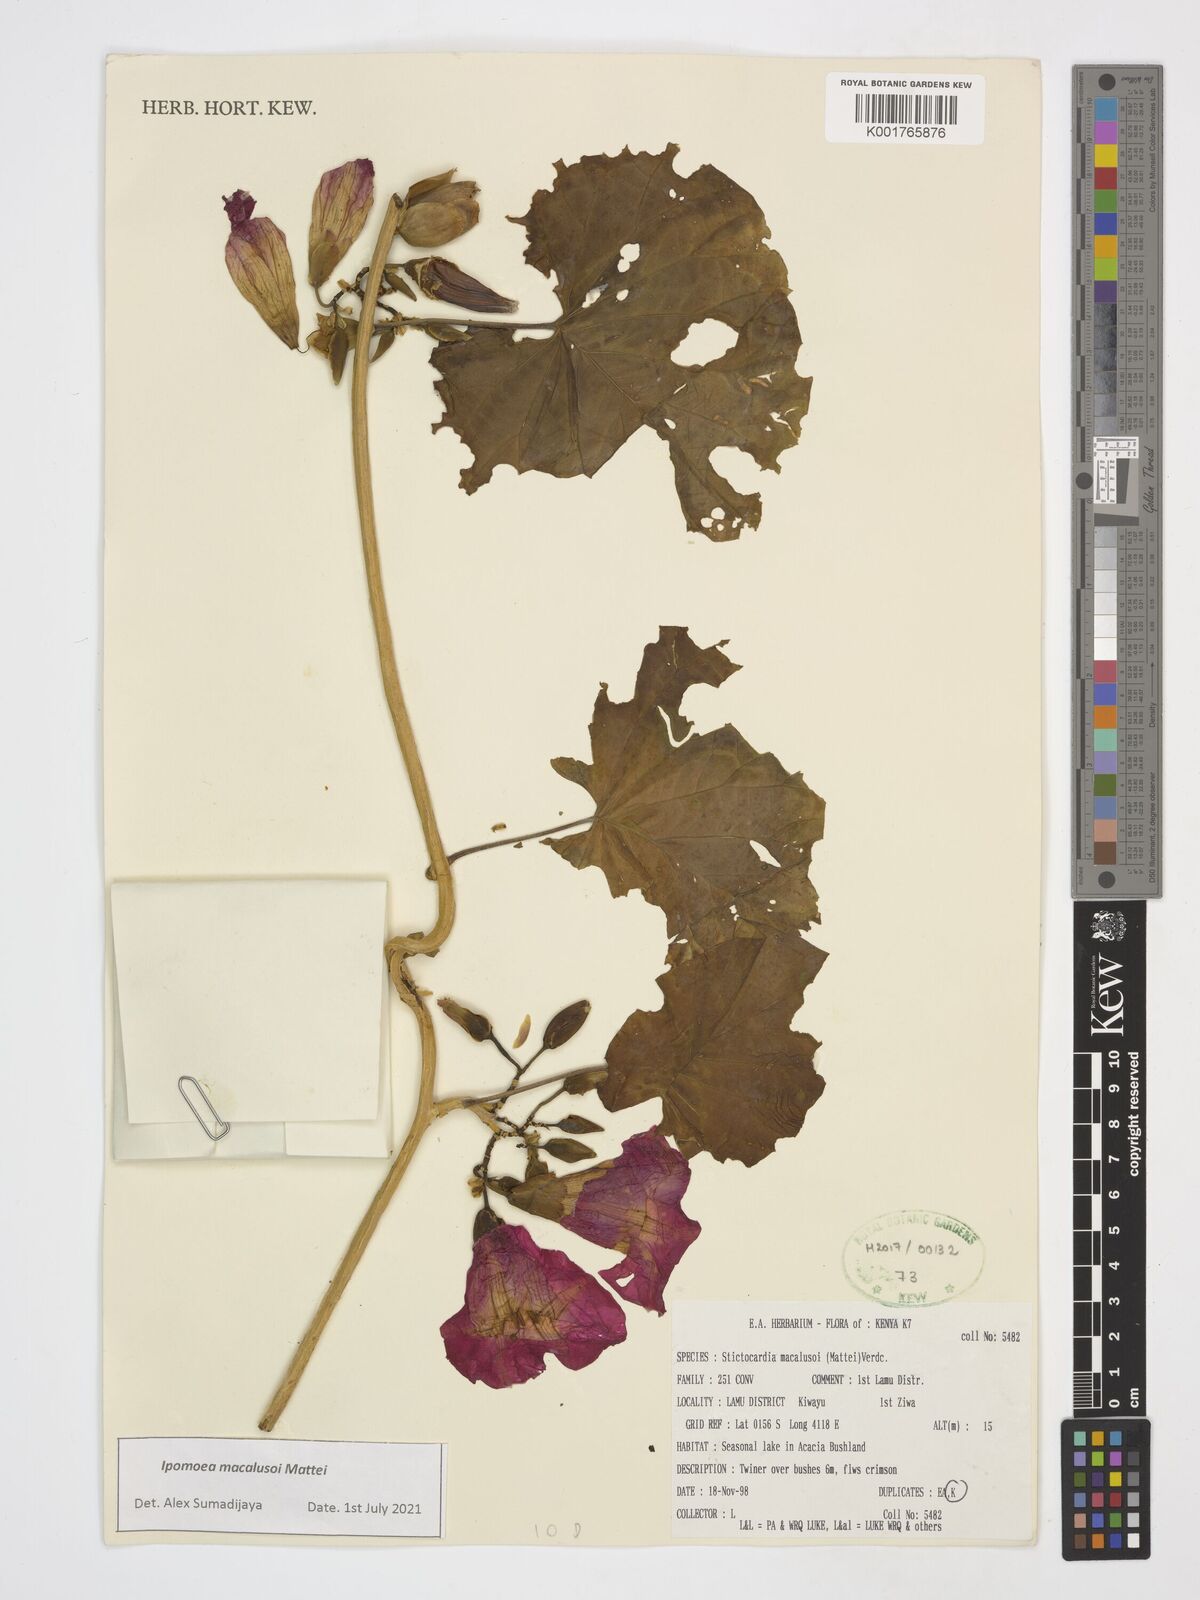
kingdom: Plantae
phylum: Tracheophyta
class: Magnoliopsida
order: Solanales
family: Convolvulaceae
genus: Stictocardia
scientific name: Stictocardia macalusoi
